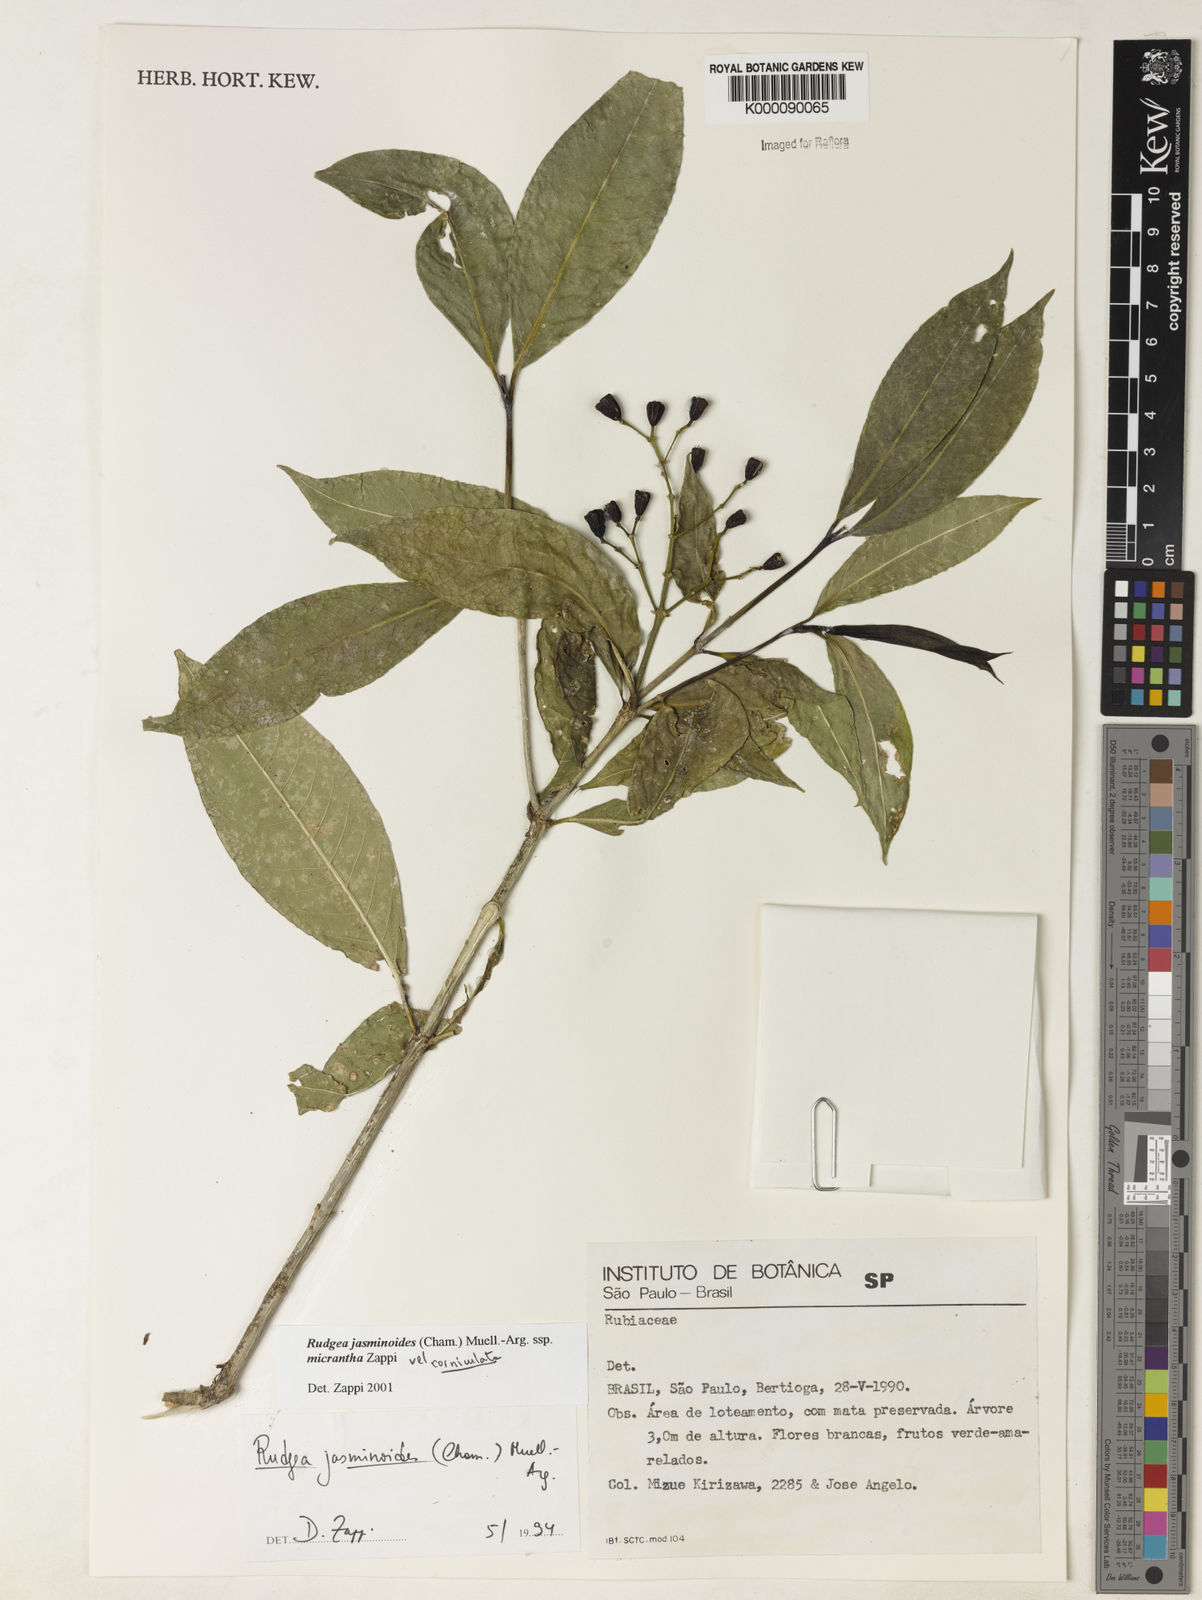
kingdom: Plantae
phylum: Tracheophyta
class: Magnoliopsida
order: Gentianales
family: Rubiaceae
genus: Rudgea
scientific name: Rudgea jasminoides
